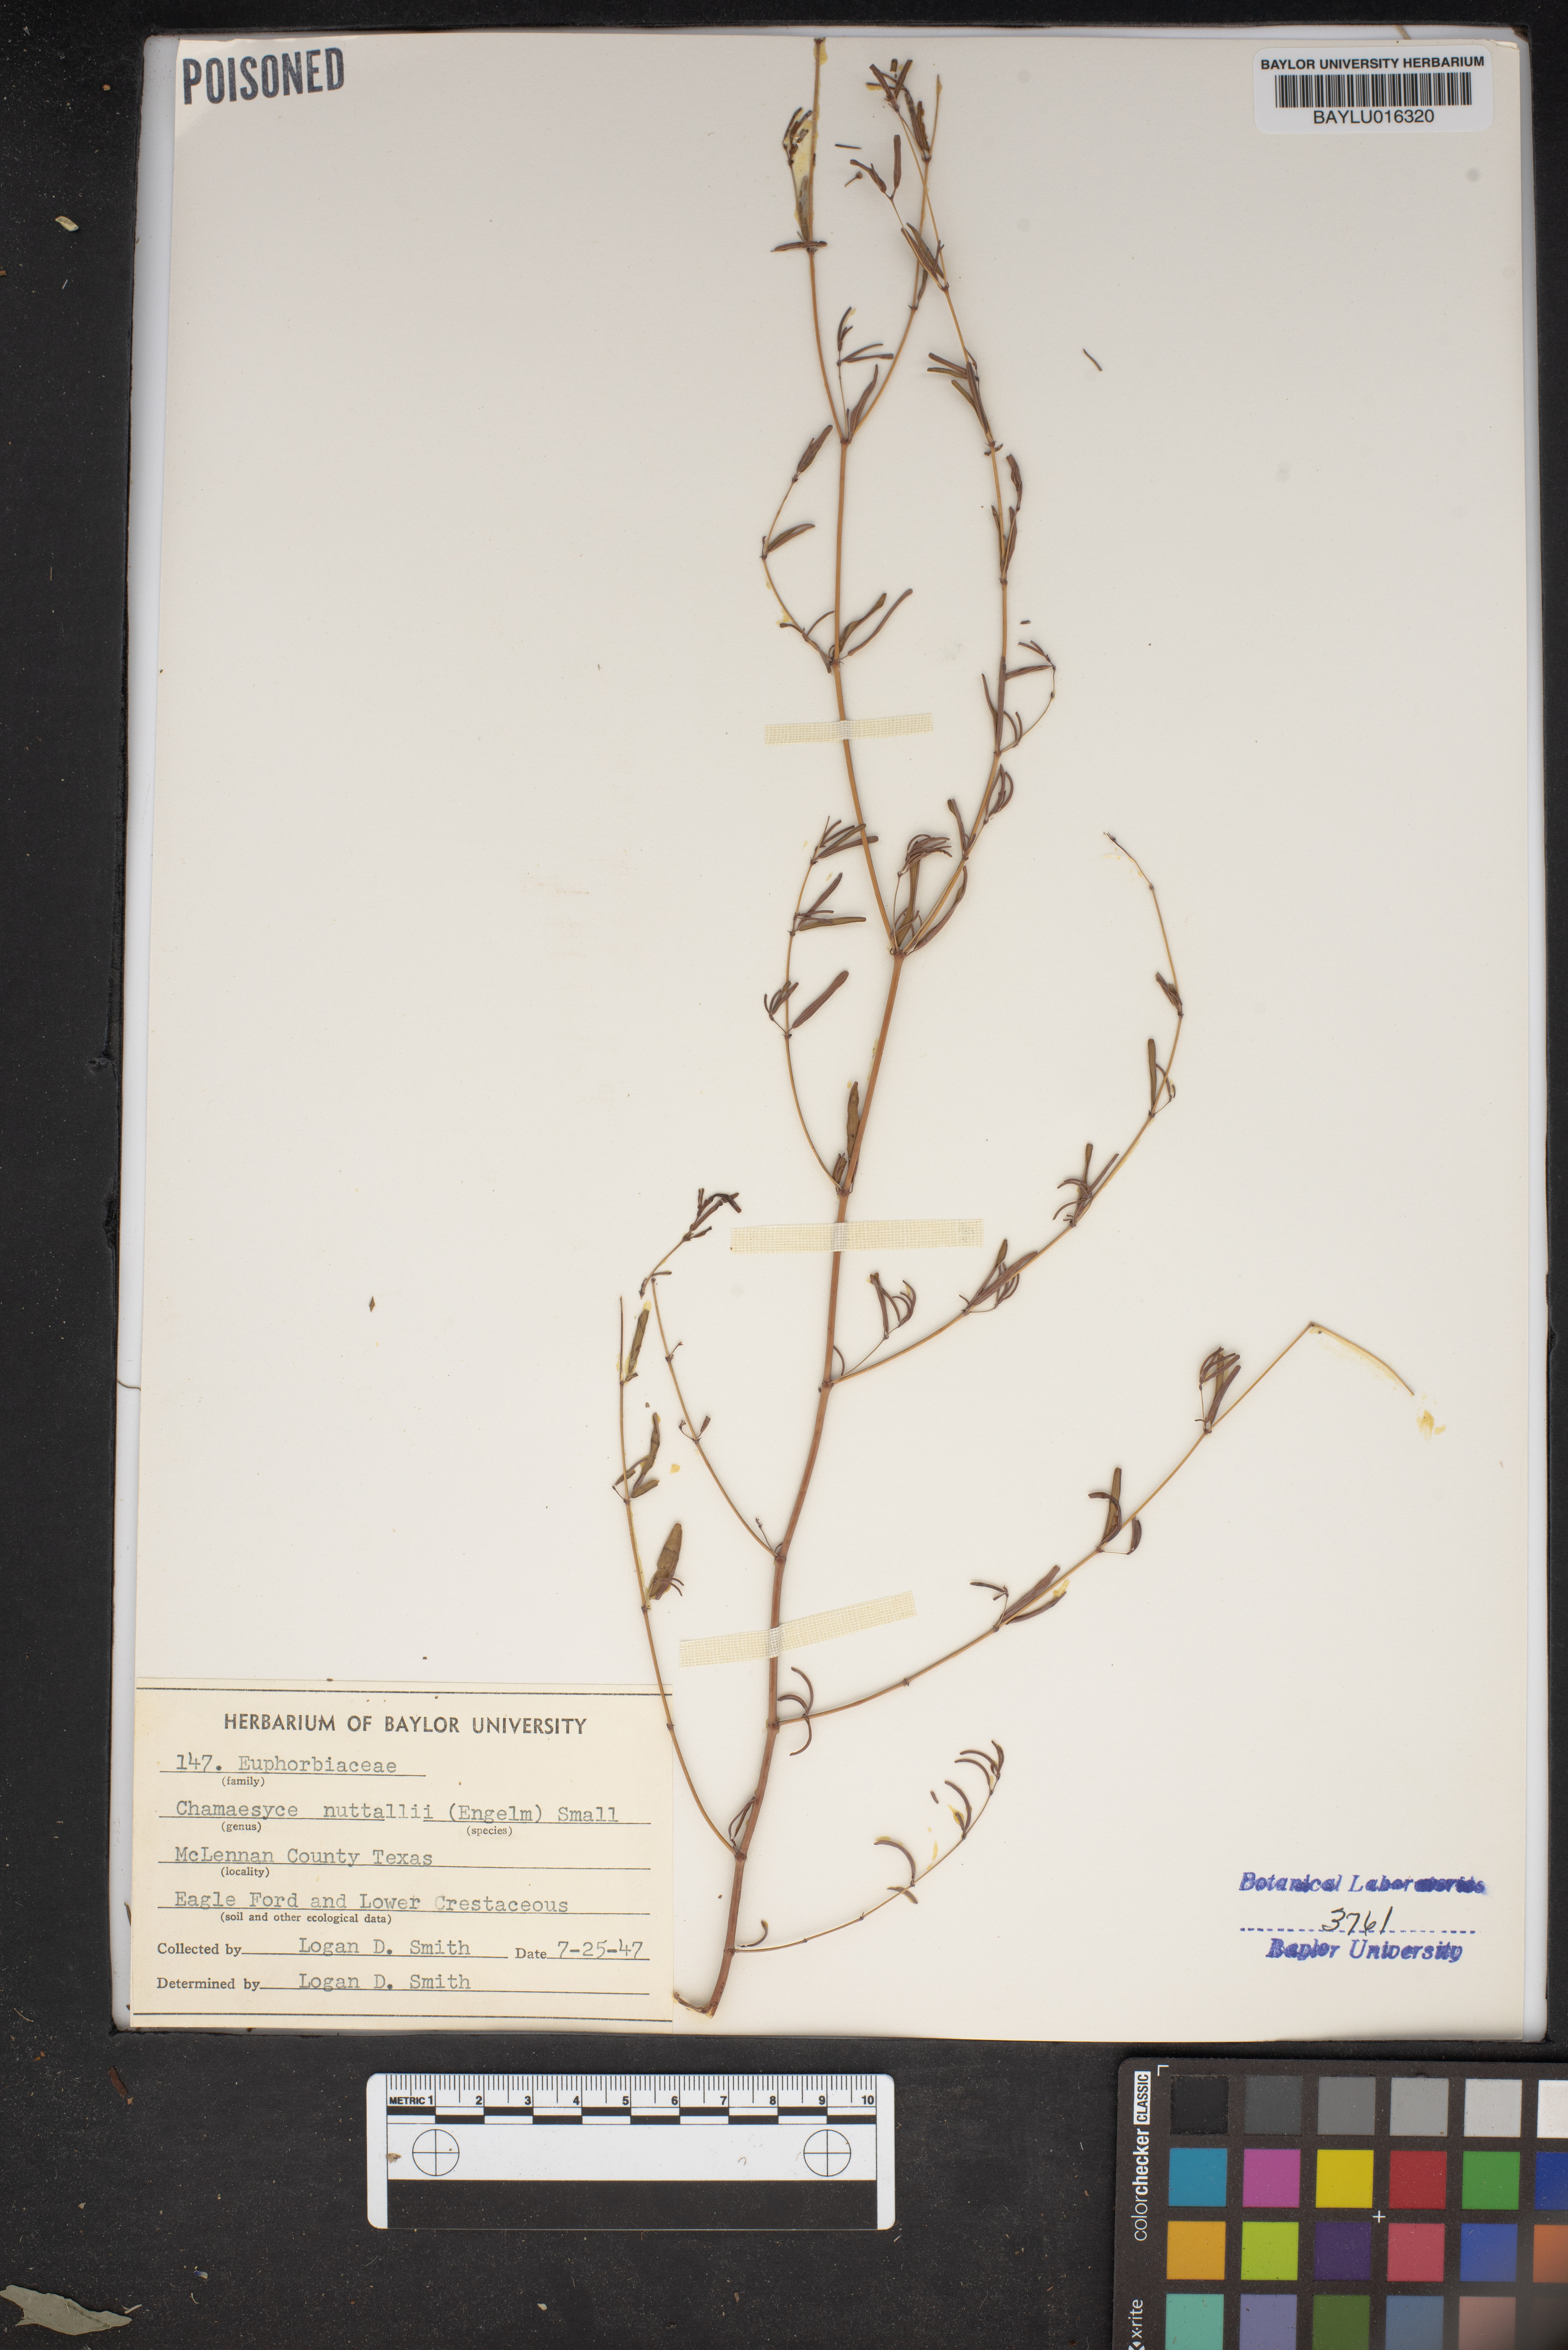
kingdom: Plantae
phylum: Tracheophyta
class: Magnoliopsida
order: Malpighiales
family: Euphorbiaceae
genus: Euphorbia
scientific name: Euphorbia missurica
